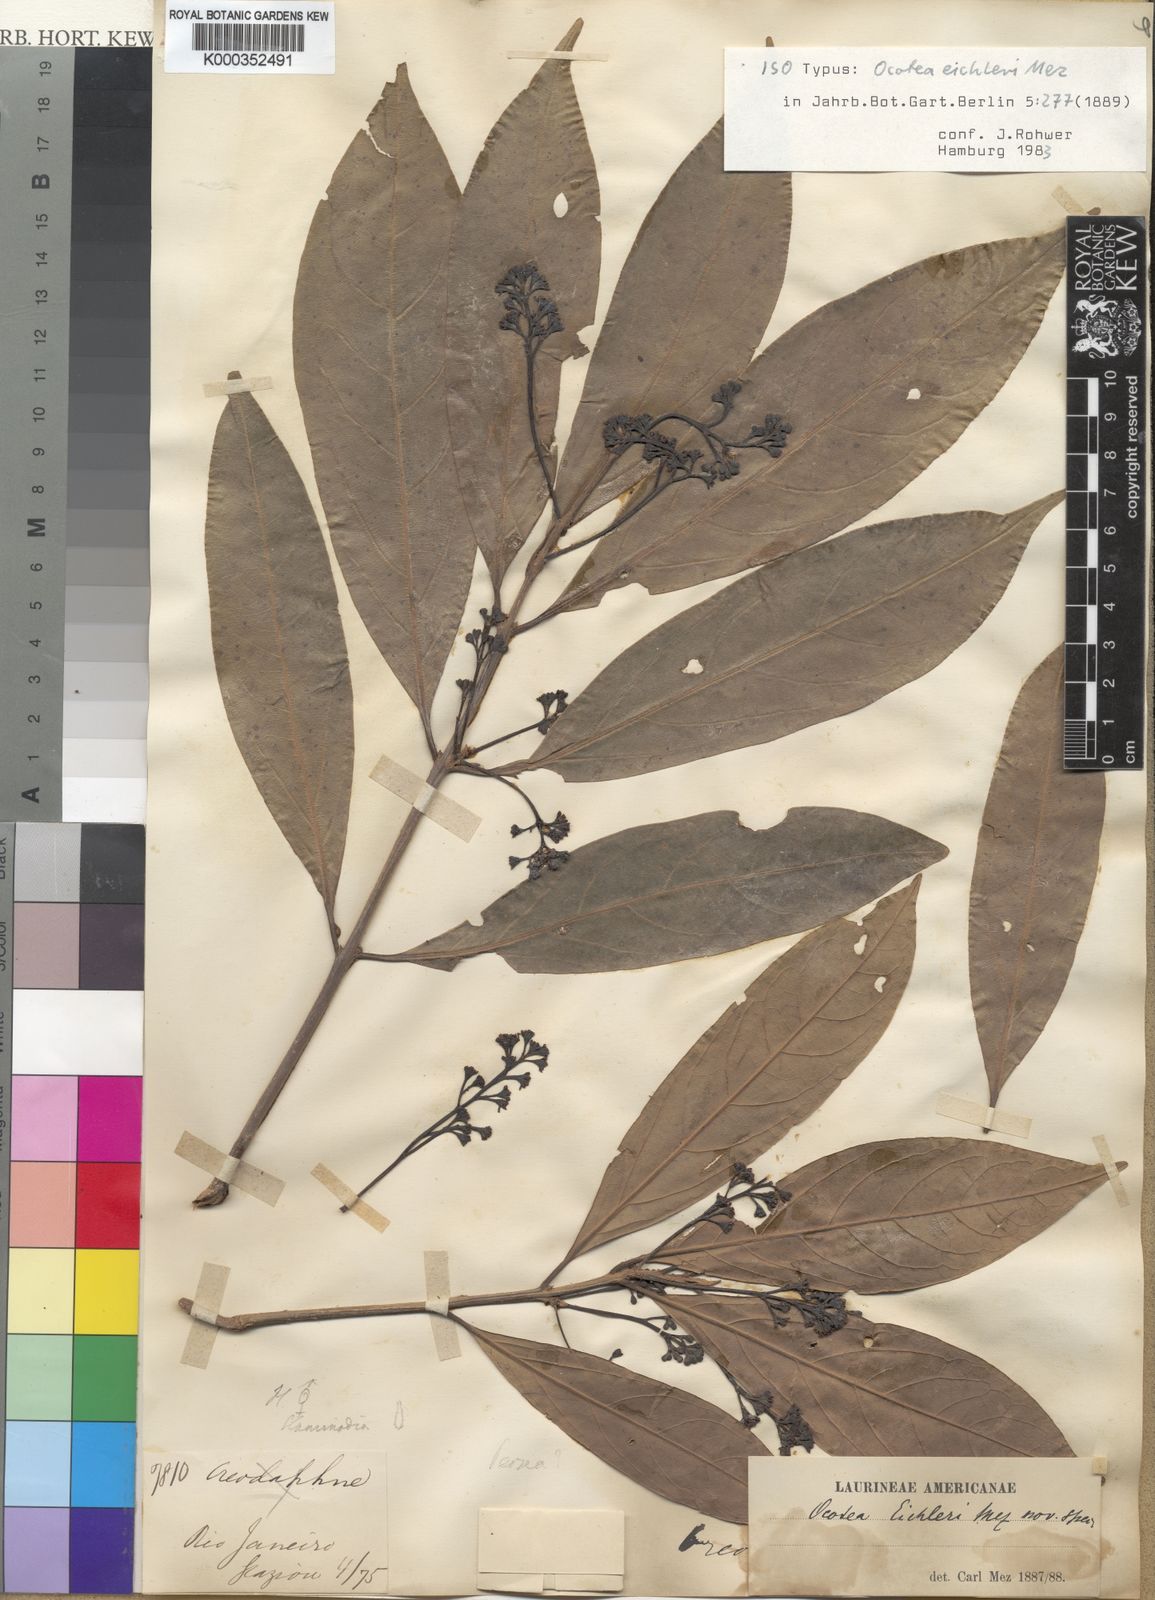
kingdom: Plantae
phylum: Tracheophyta
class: Magnoliopsida
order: Laurales
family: Lauraceae
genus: Ocotea
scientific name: Ocotea beyrichii
